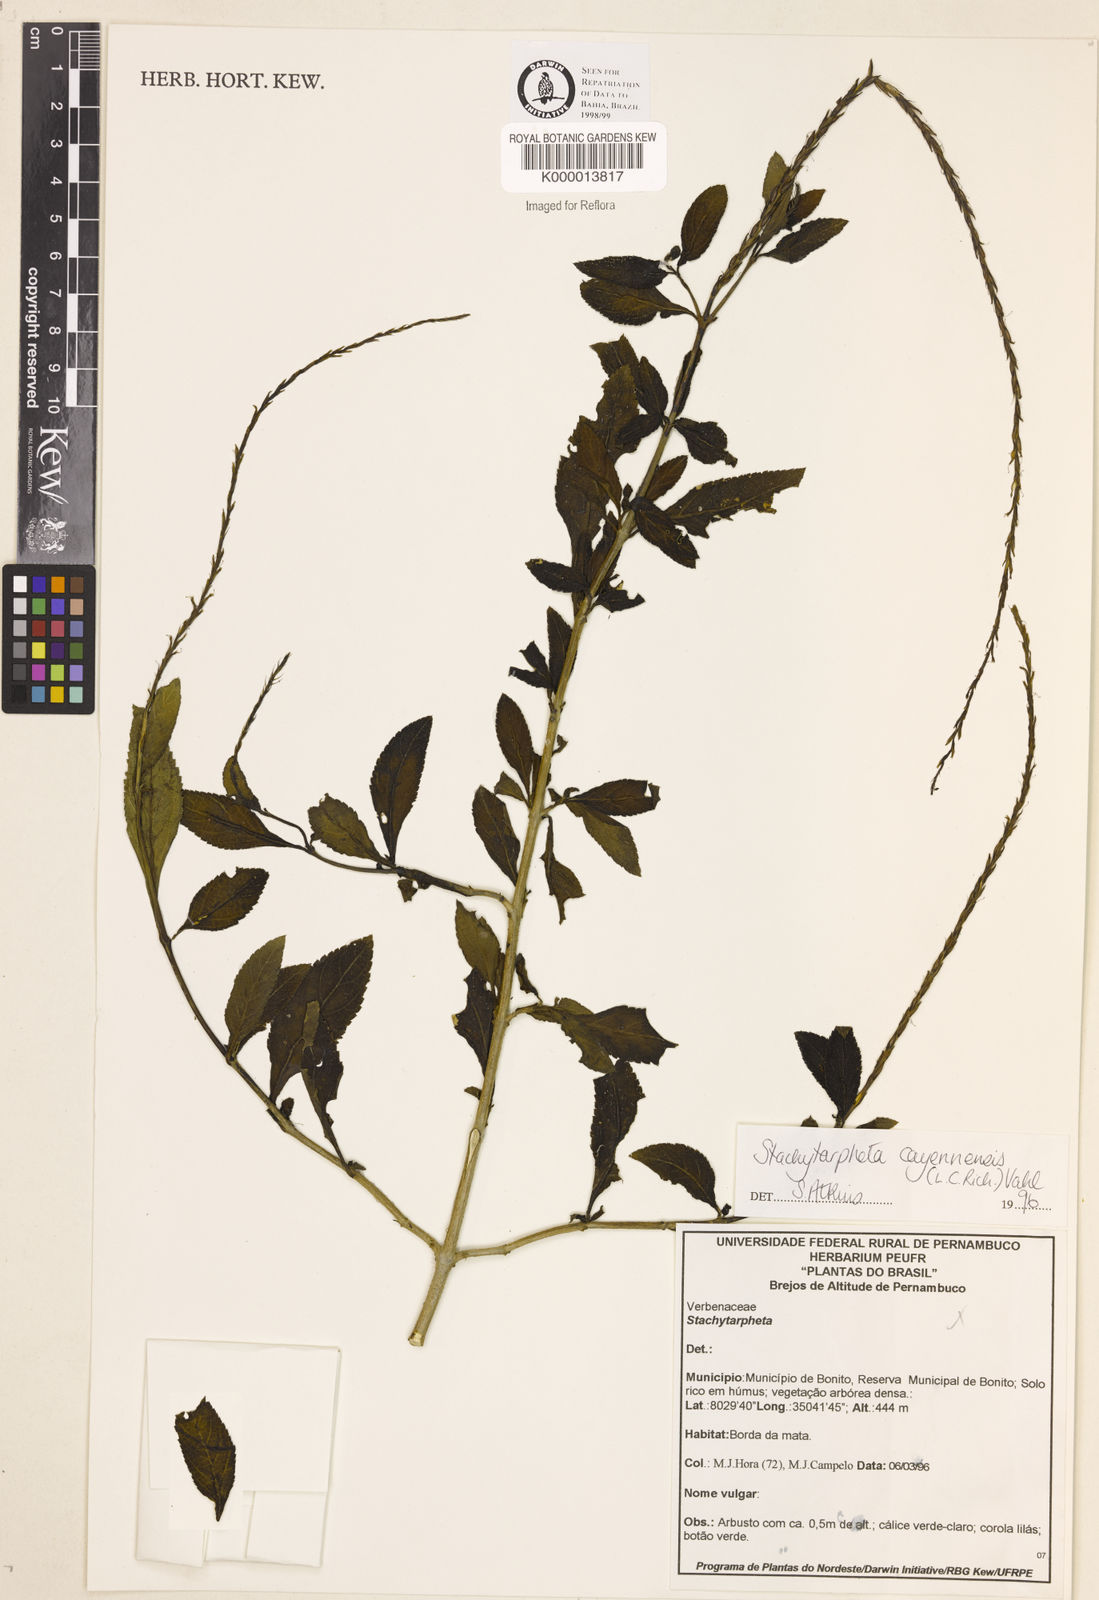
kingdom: Plantae
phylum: Tracheophyta
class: Magnoliopsida
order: Lamiales
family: Verbenaceae
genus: Stachytarpheta
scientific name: Stachytarpheta cayennensis
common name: Cayenne porterweed
